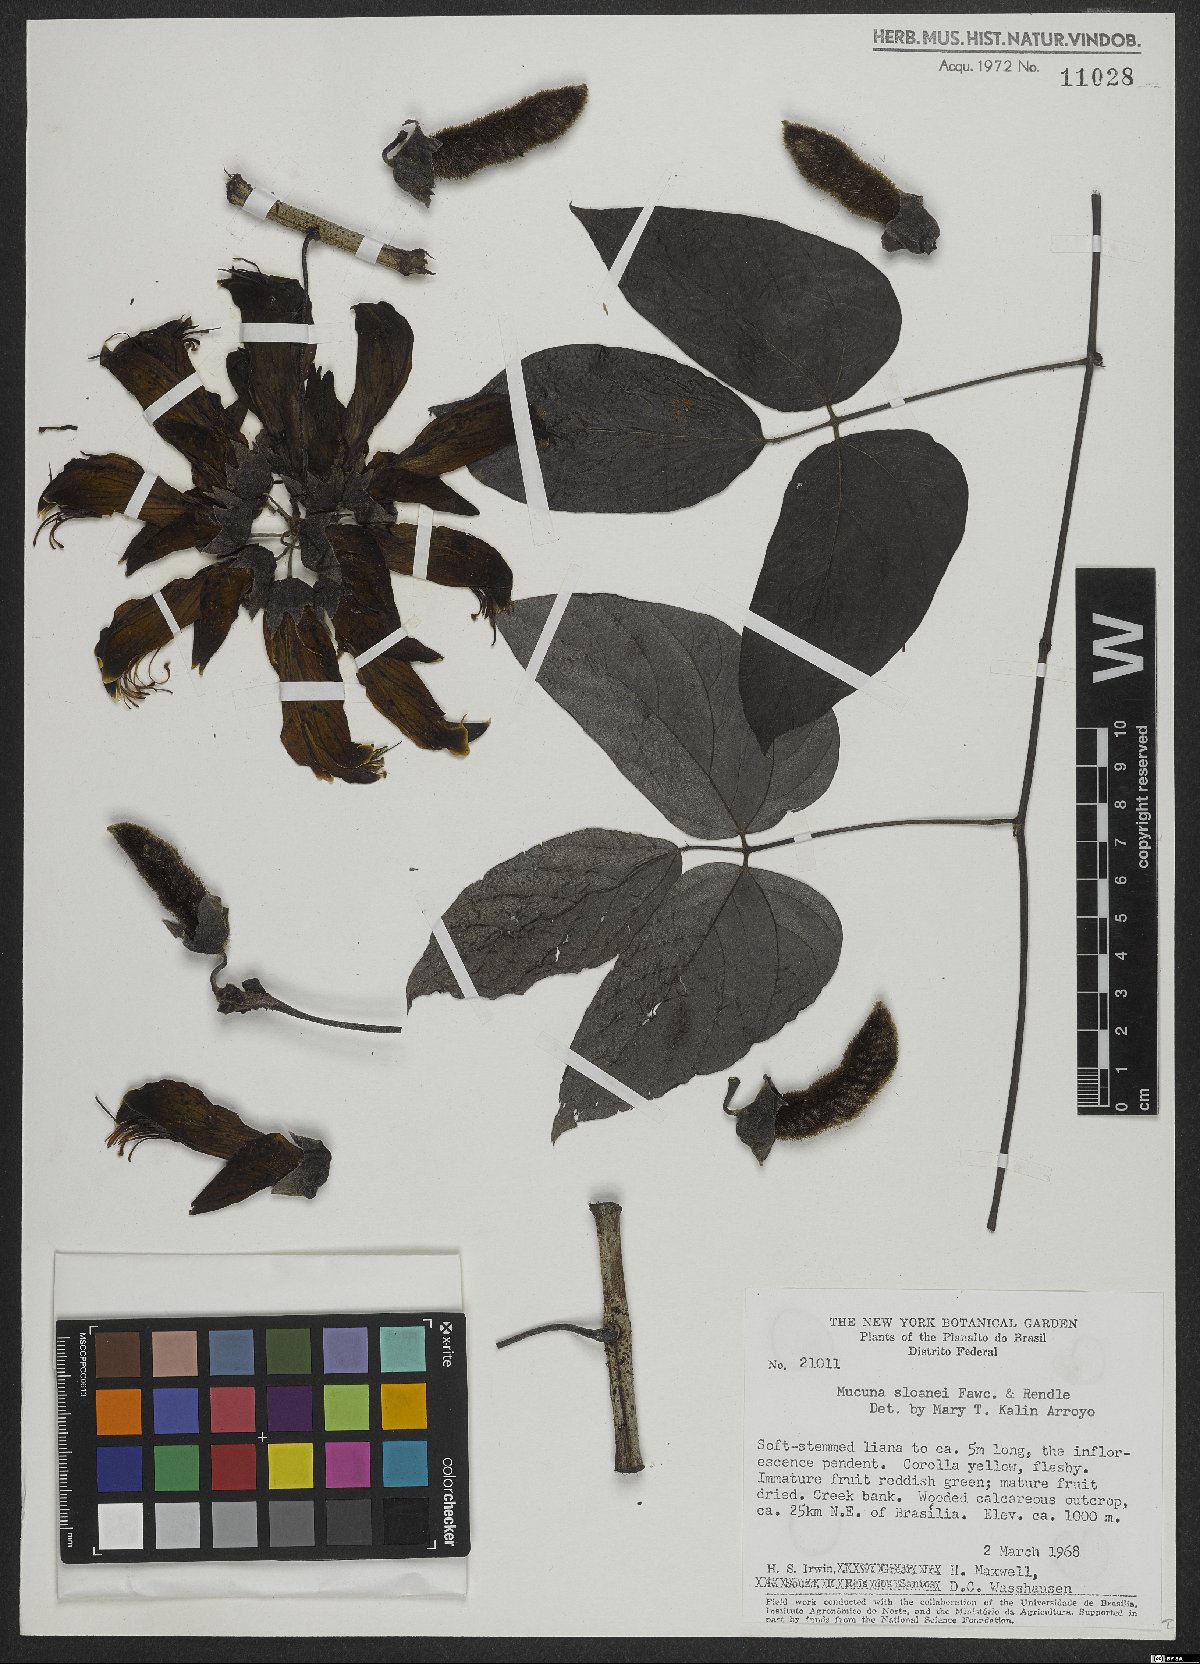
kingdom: Plantae
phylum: Tracheophyta
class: Magnoliopsida
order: Fabales
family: Fabaceae
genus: Mucuna
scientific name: Mucuna sloanei
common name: Horse-eye bean
